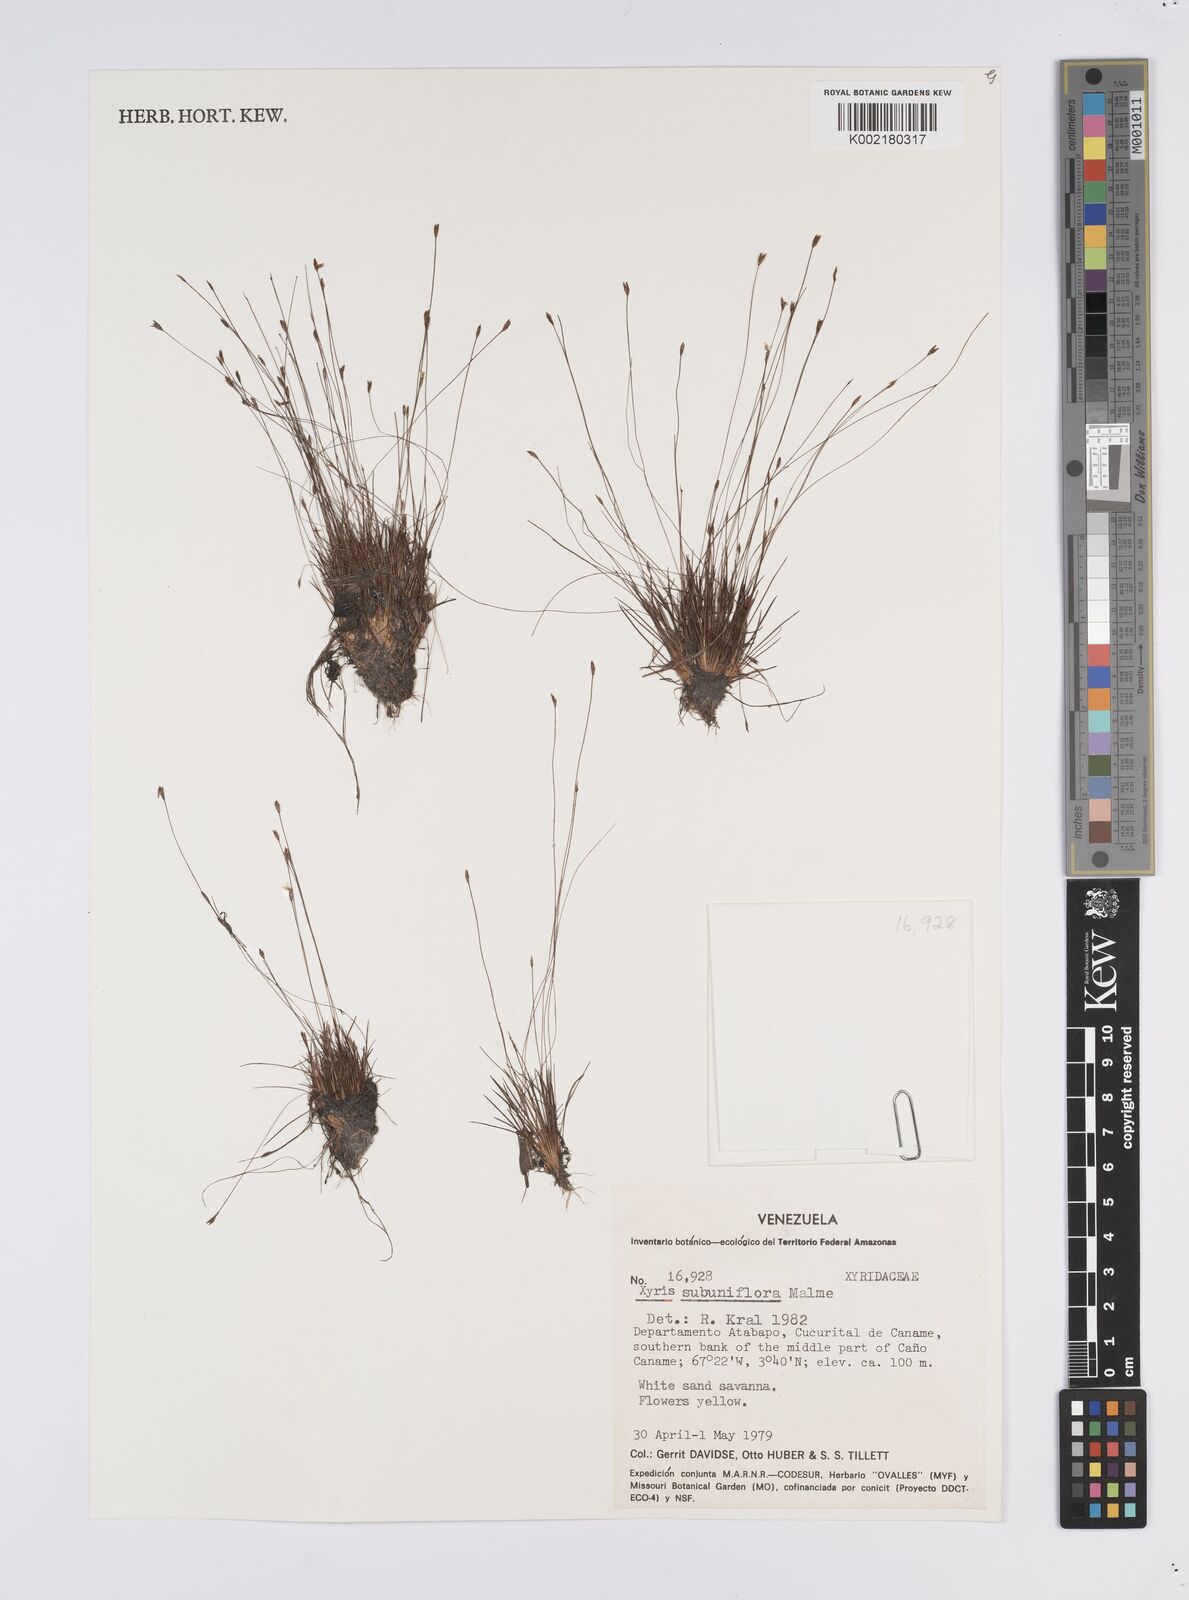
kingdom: Plantae
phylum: Tracheophyta
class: Liliopsida
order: Poales
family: Xyridaceae
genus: Xyris
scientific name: Xyris subuniflora
